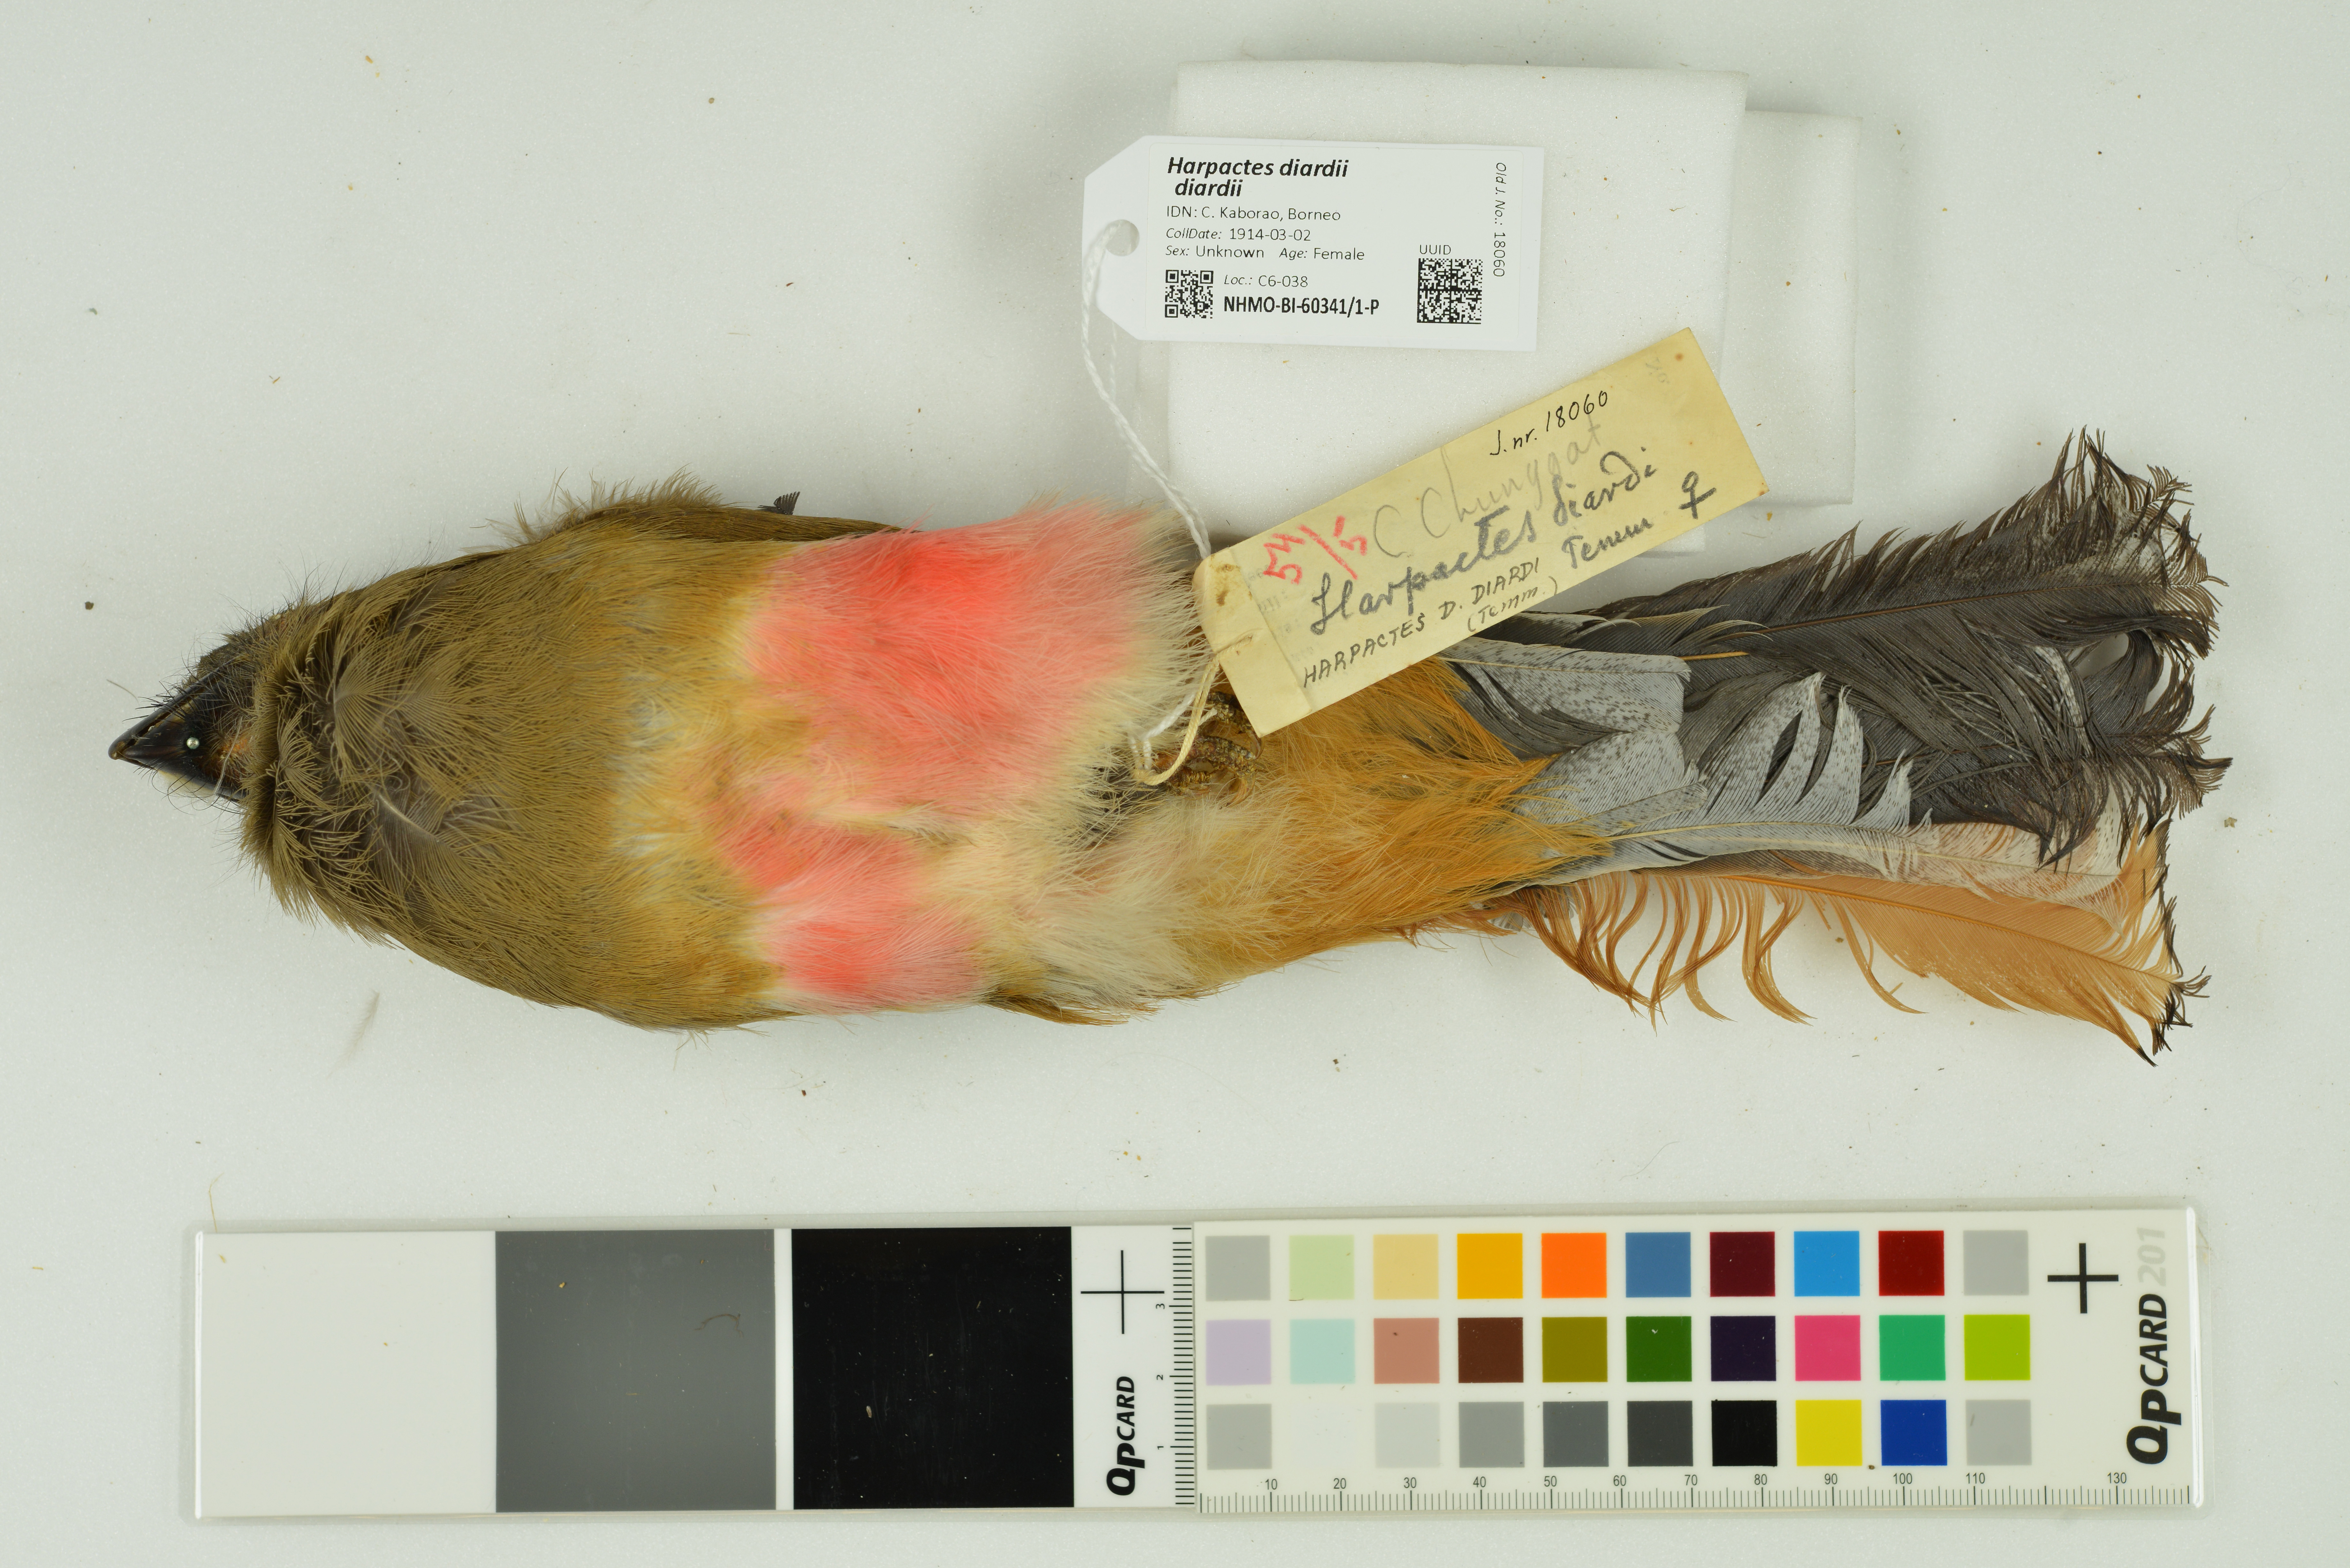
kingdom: Animalia
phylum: Chordata
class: Aves
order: Trogoniformes
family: Trogonidae
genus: Harpactes
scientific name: Harpactes diardii
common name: Diard's trogon
